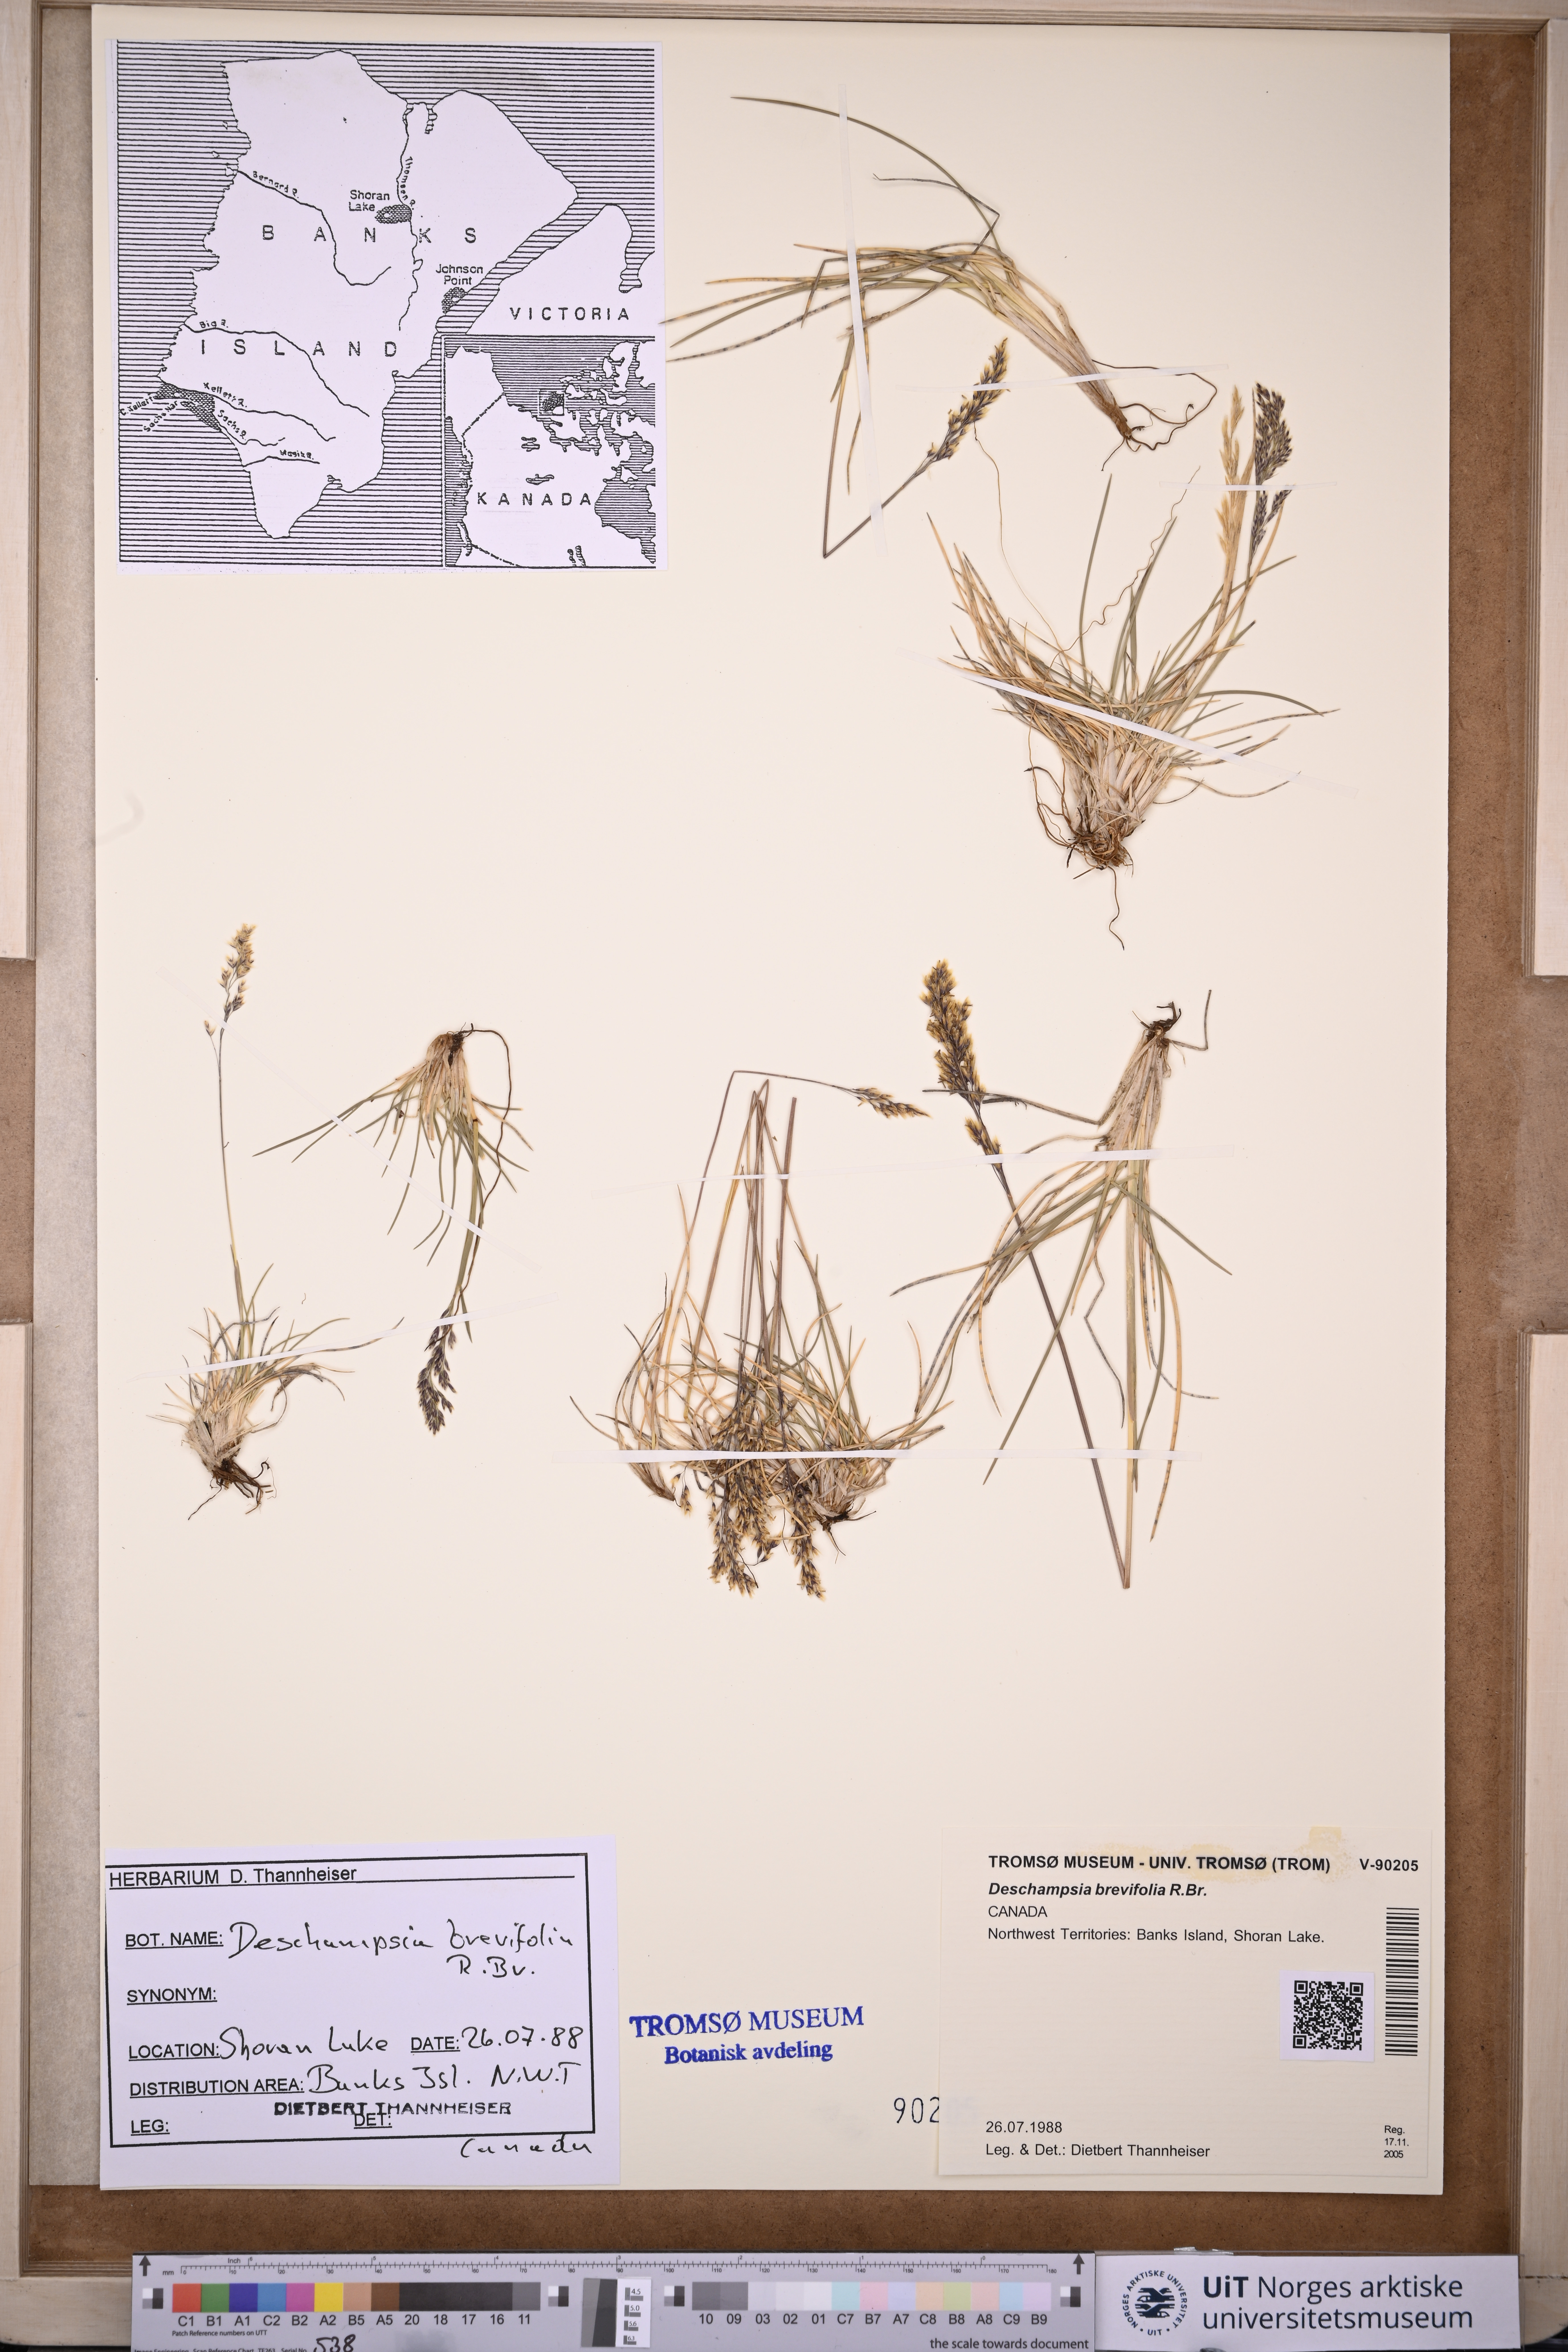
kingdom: Plantae
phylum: Tracheophyta
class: Liliopsida
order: Poales
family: Poaceae
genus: Deschampsia
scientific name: Deschampsia cespitosa
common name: Tufted hair-grass
